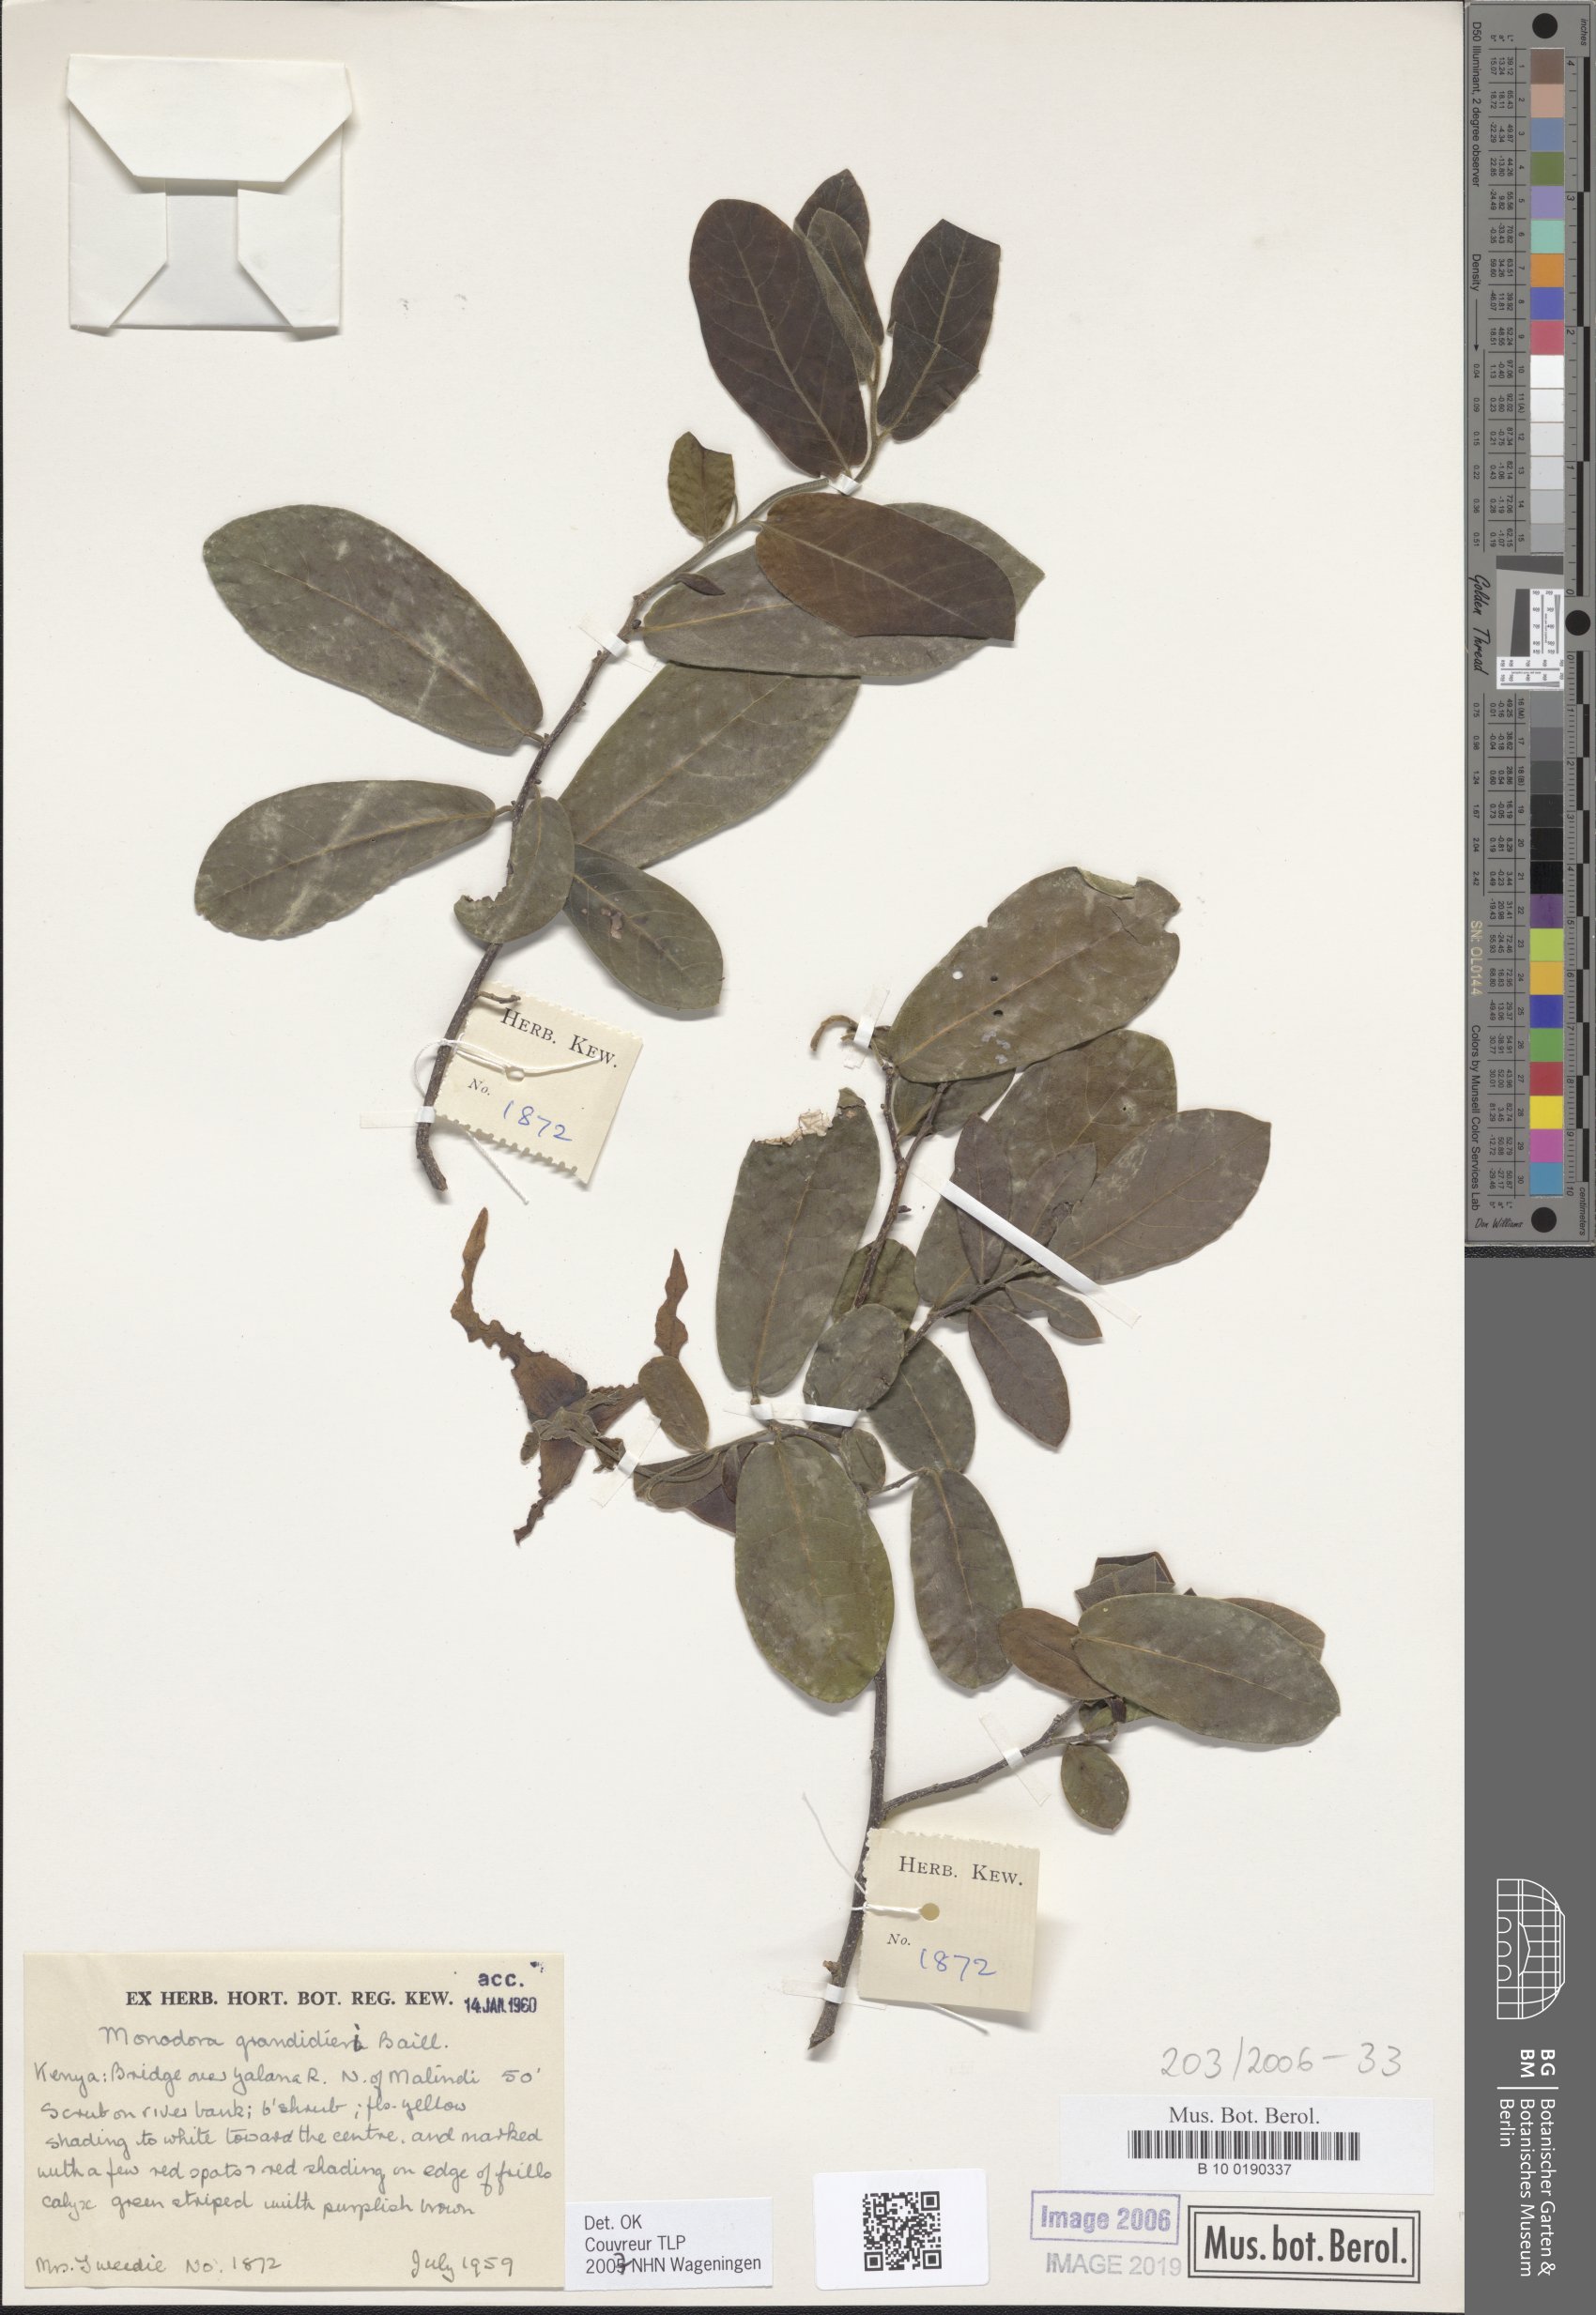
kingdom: Plantae
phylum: Tracheophyta
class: Magnoliopsida
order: Magnoliales
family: Annonaceae
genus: Monodora
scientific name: Monodora grandidieri
